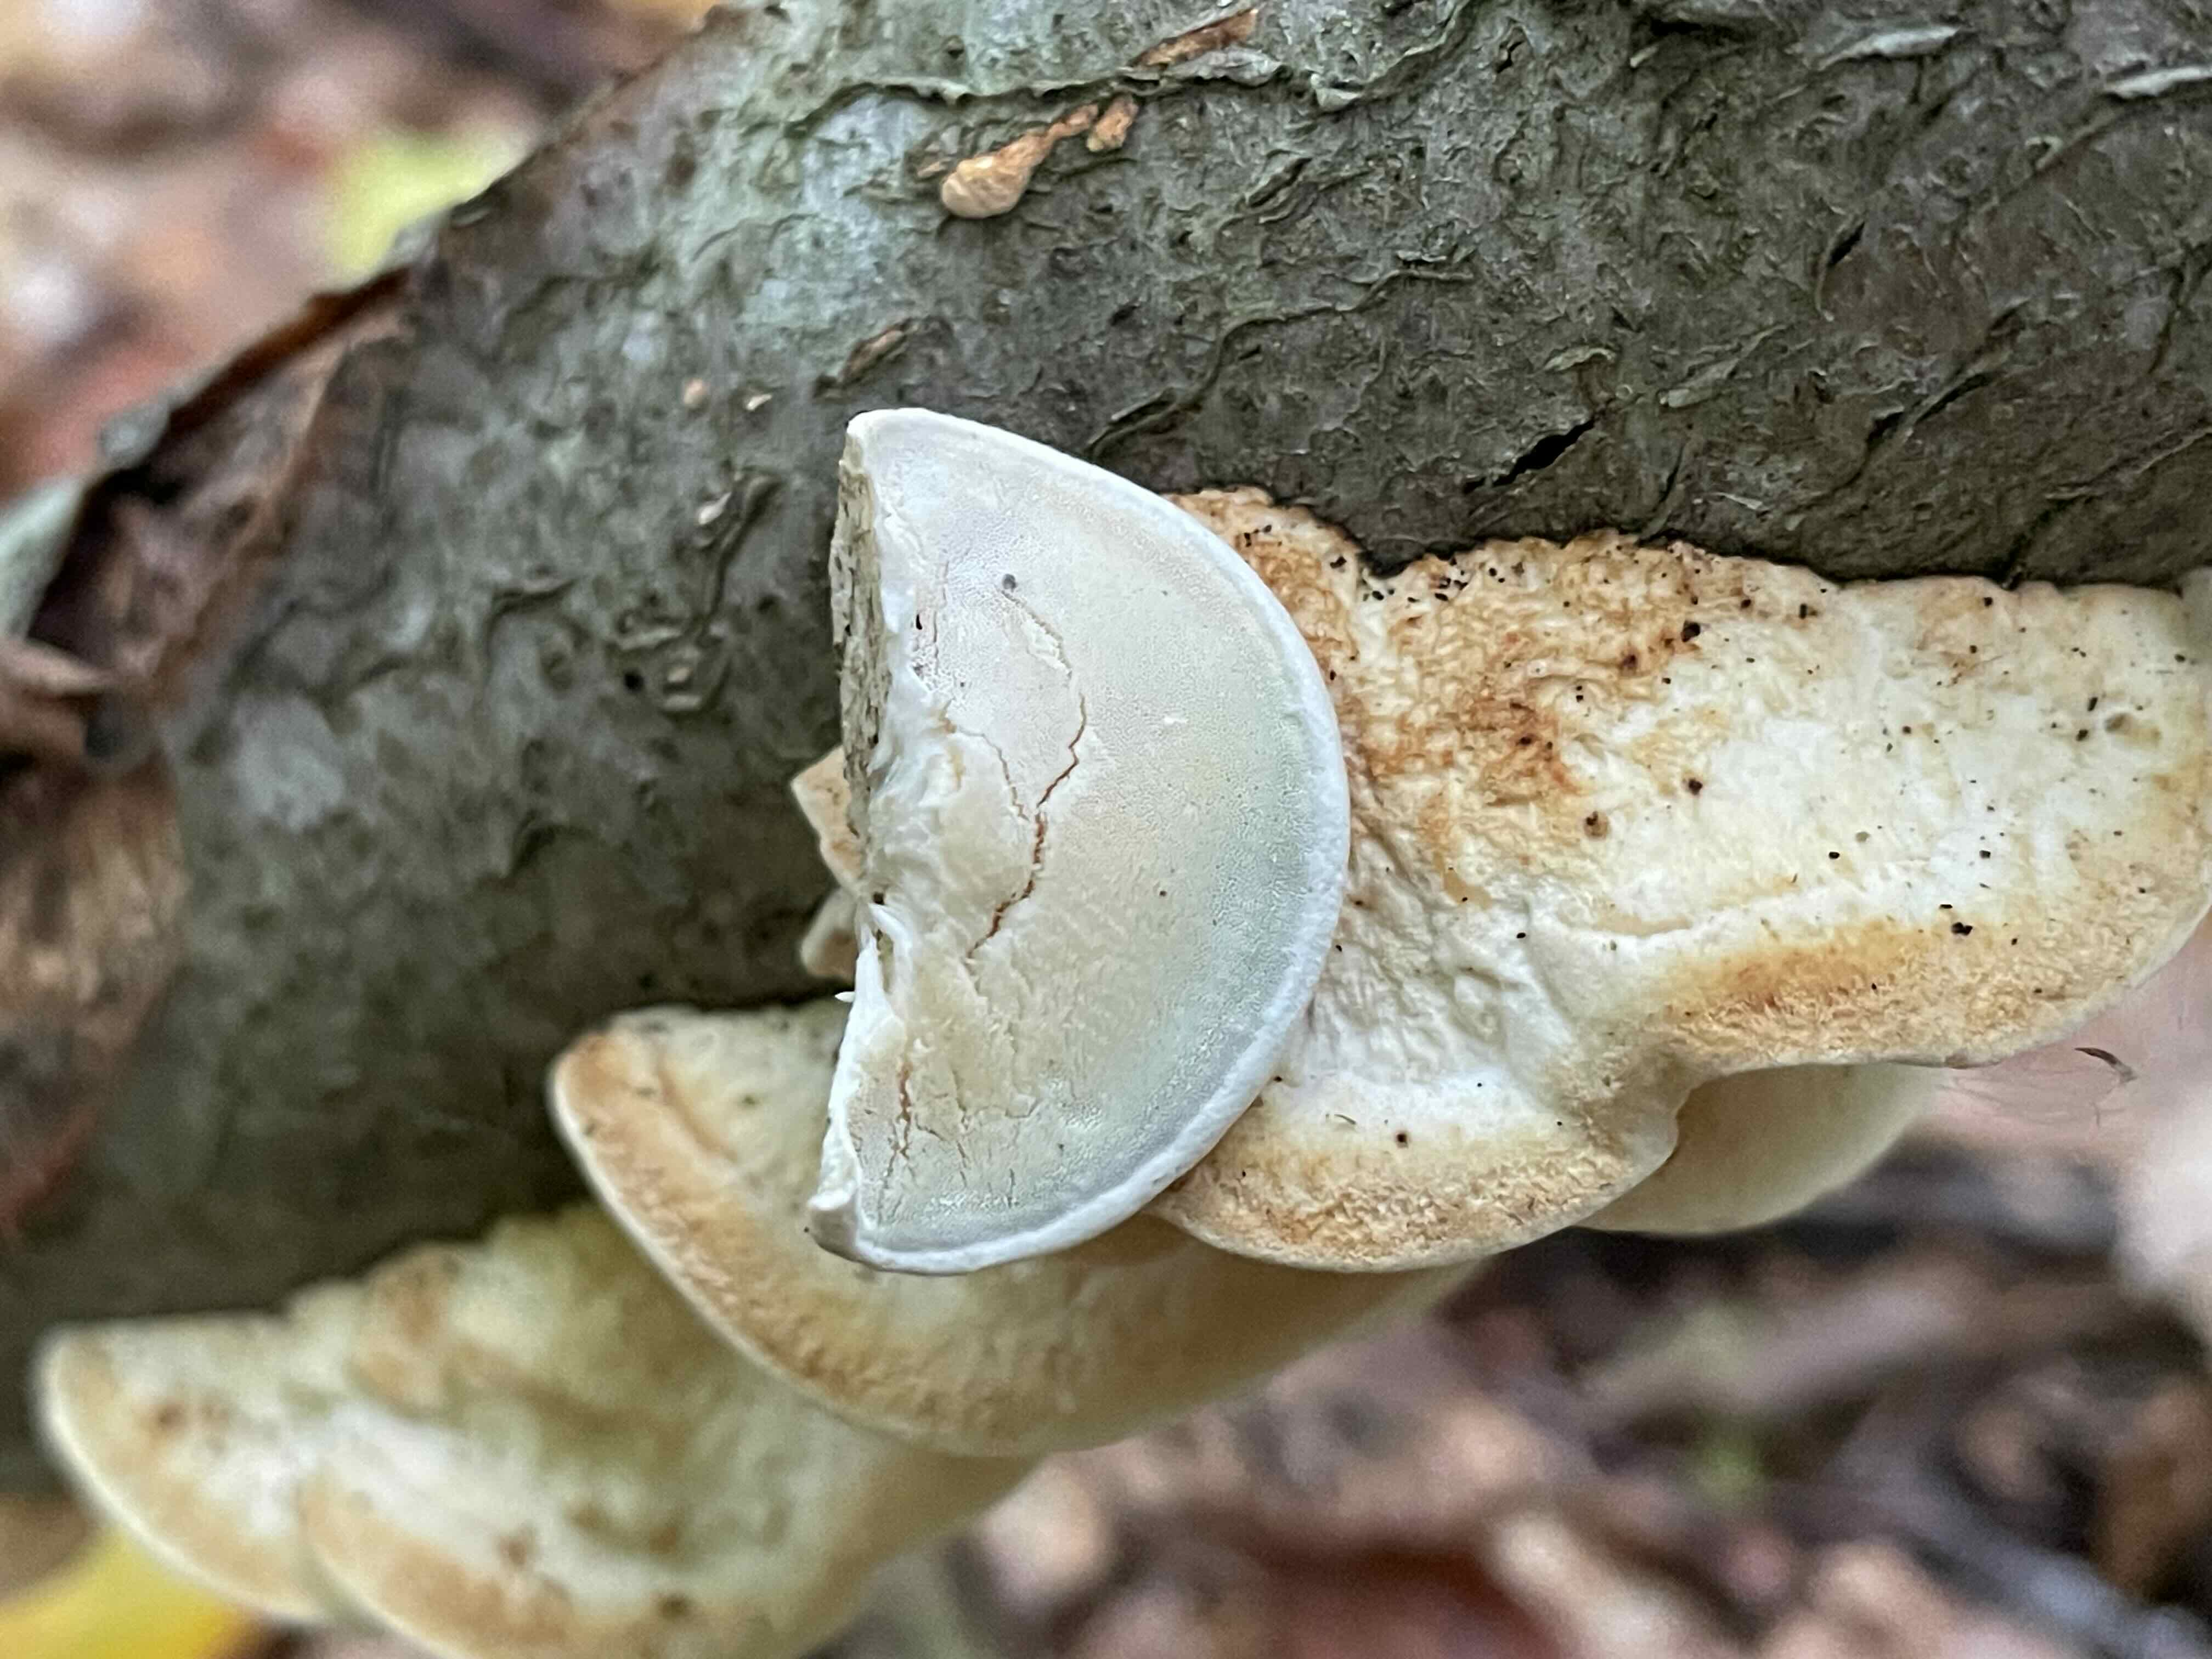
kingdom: Fungi
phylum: Basidiomycota
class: Agaricomycetes
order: Polyporales
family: Incrustoporiaceae
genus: Skeletocutis
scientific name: Skeletocutis nemoralis
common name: stor krystalporesvamp
